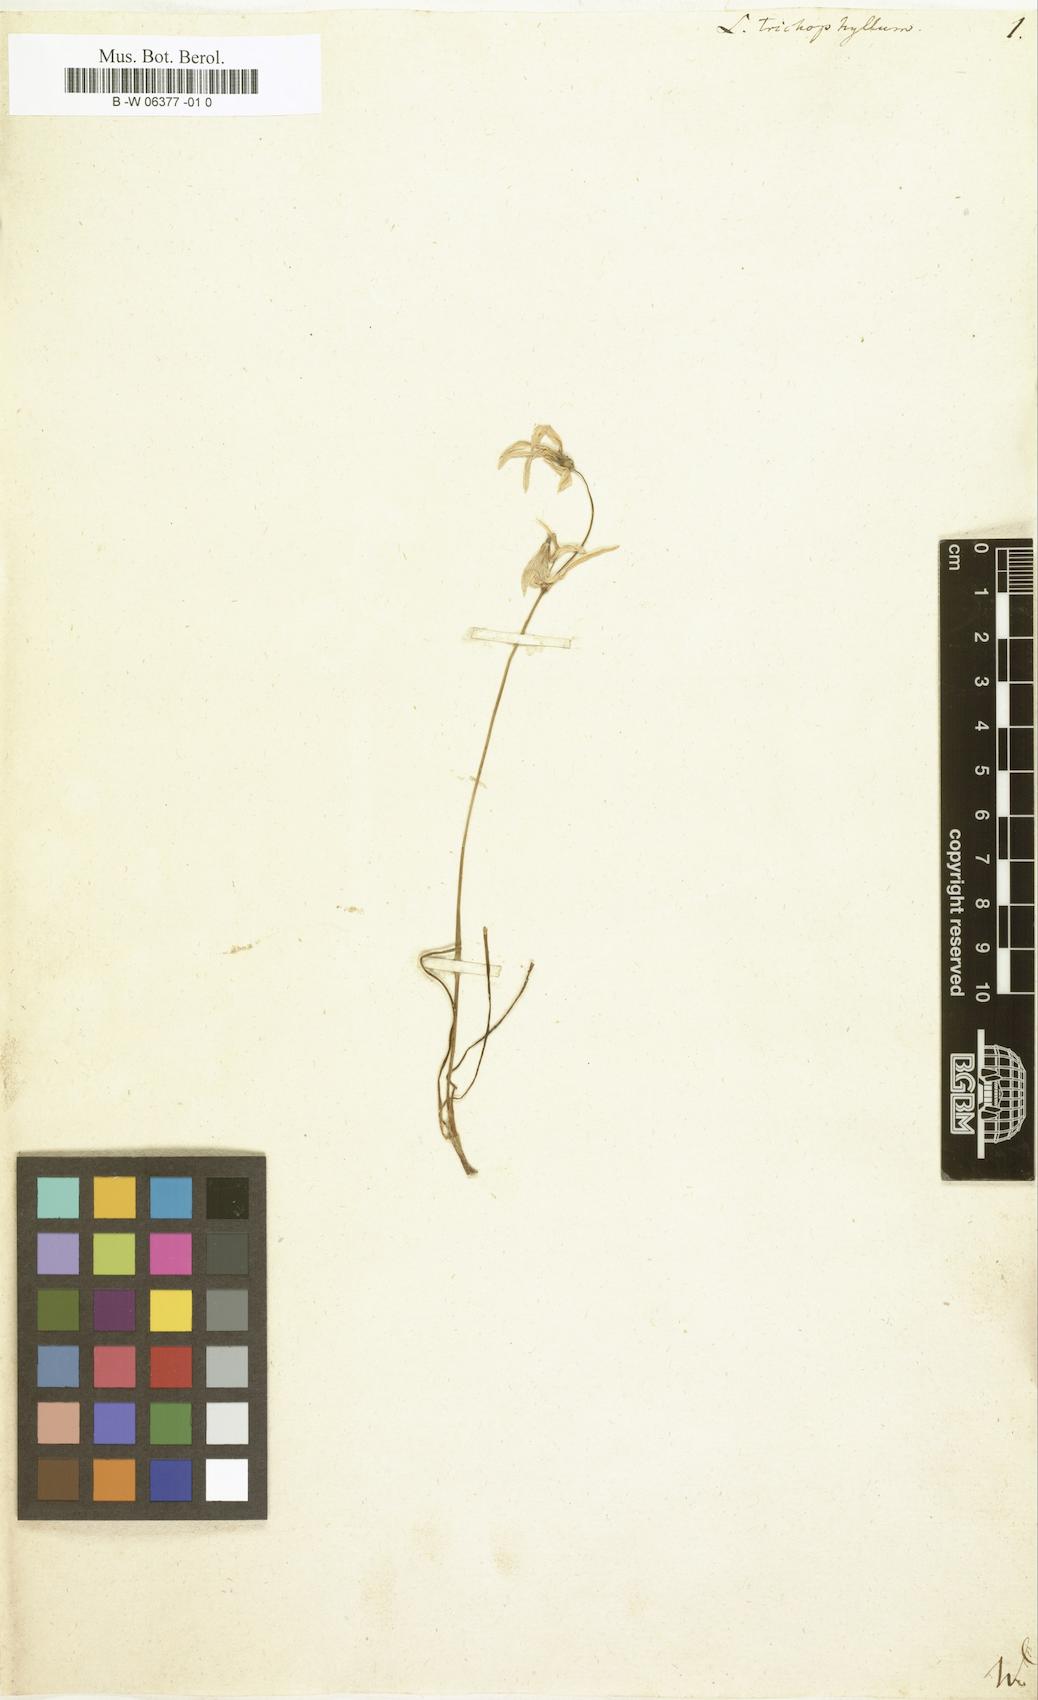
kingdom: Plantae
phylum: Tracheophyta
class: Liliopsida
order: Asparagales
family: Amaryllidaceae
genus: Acis
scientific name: Acis
